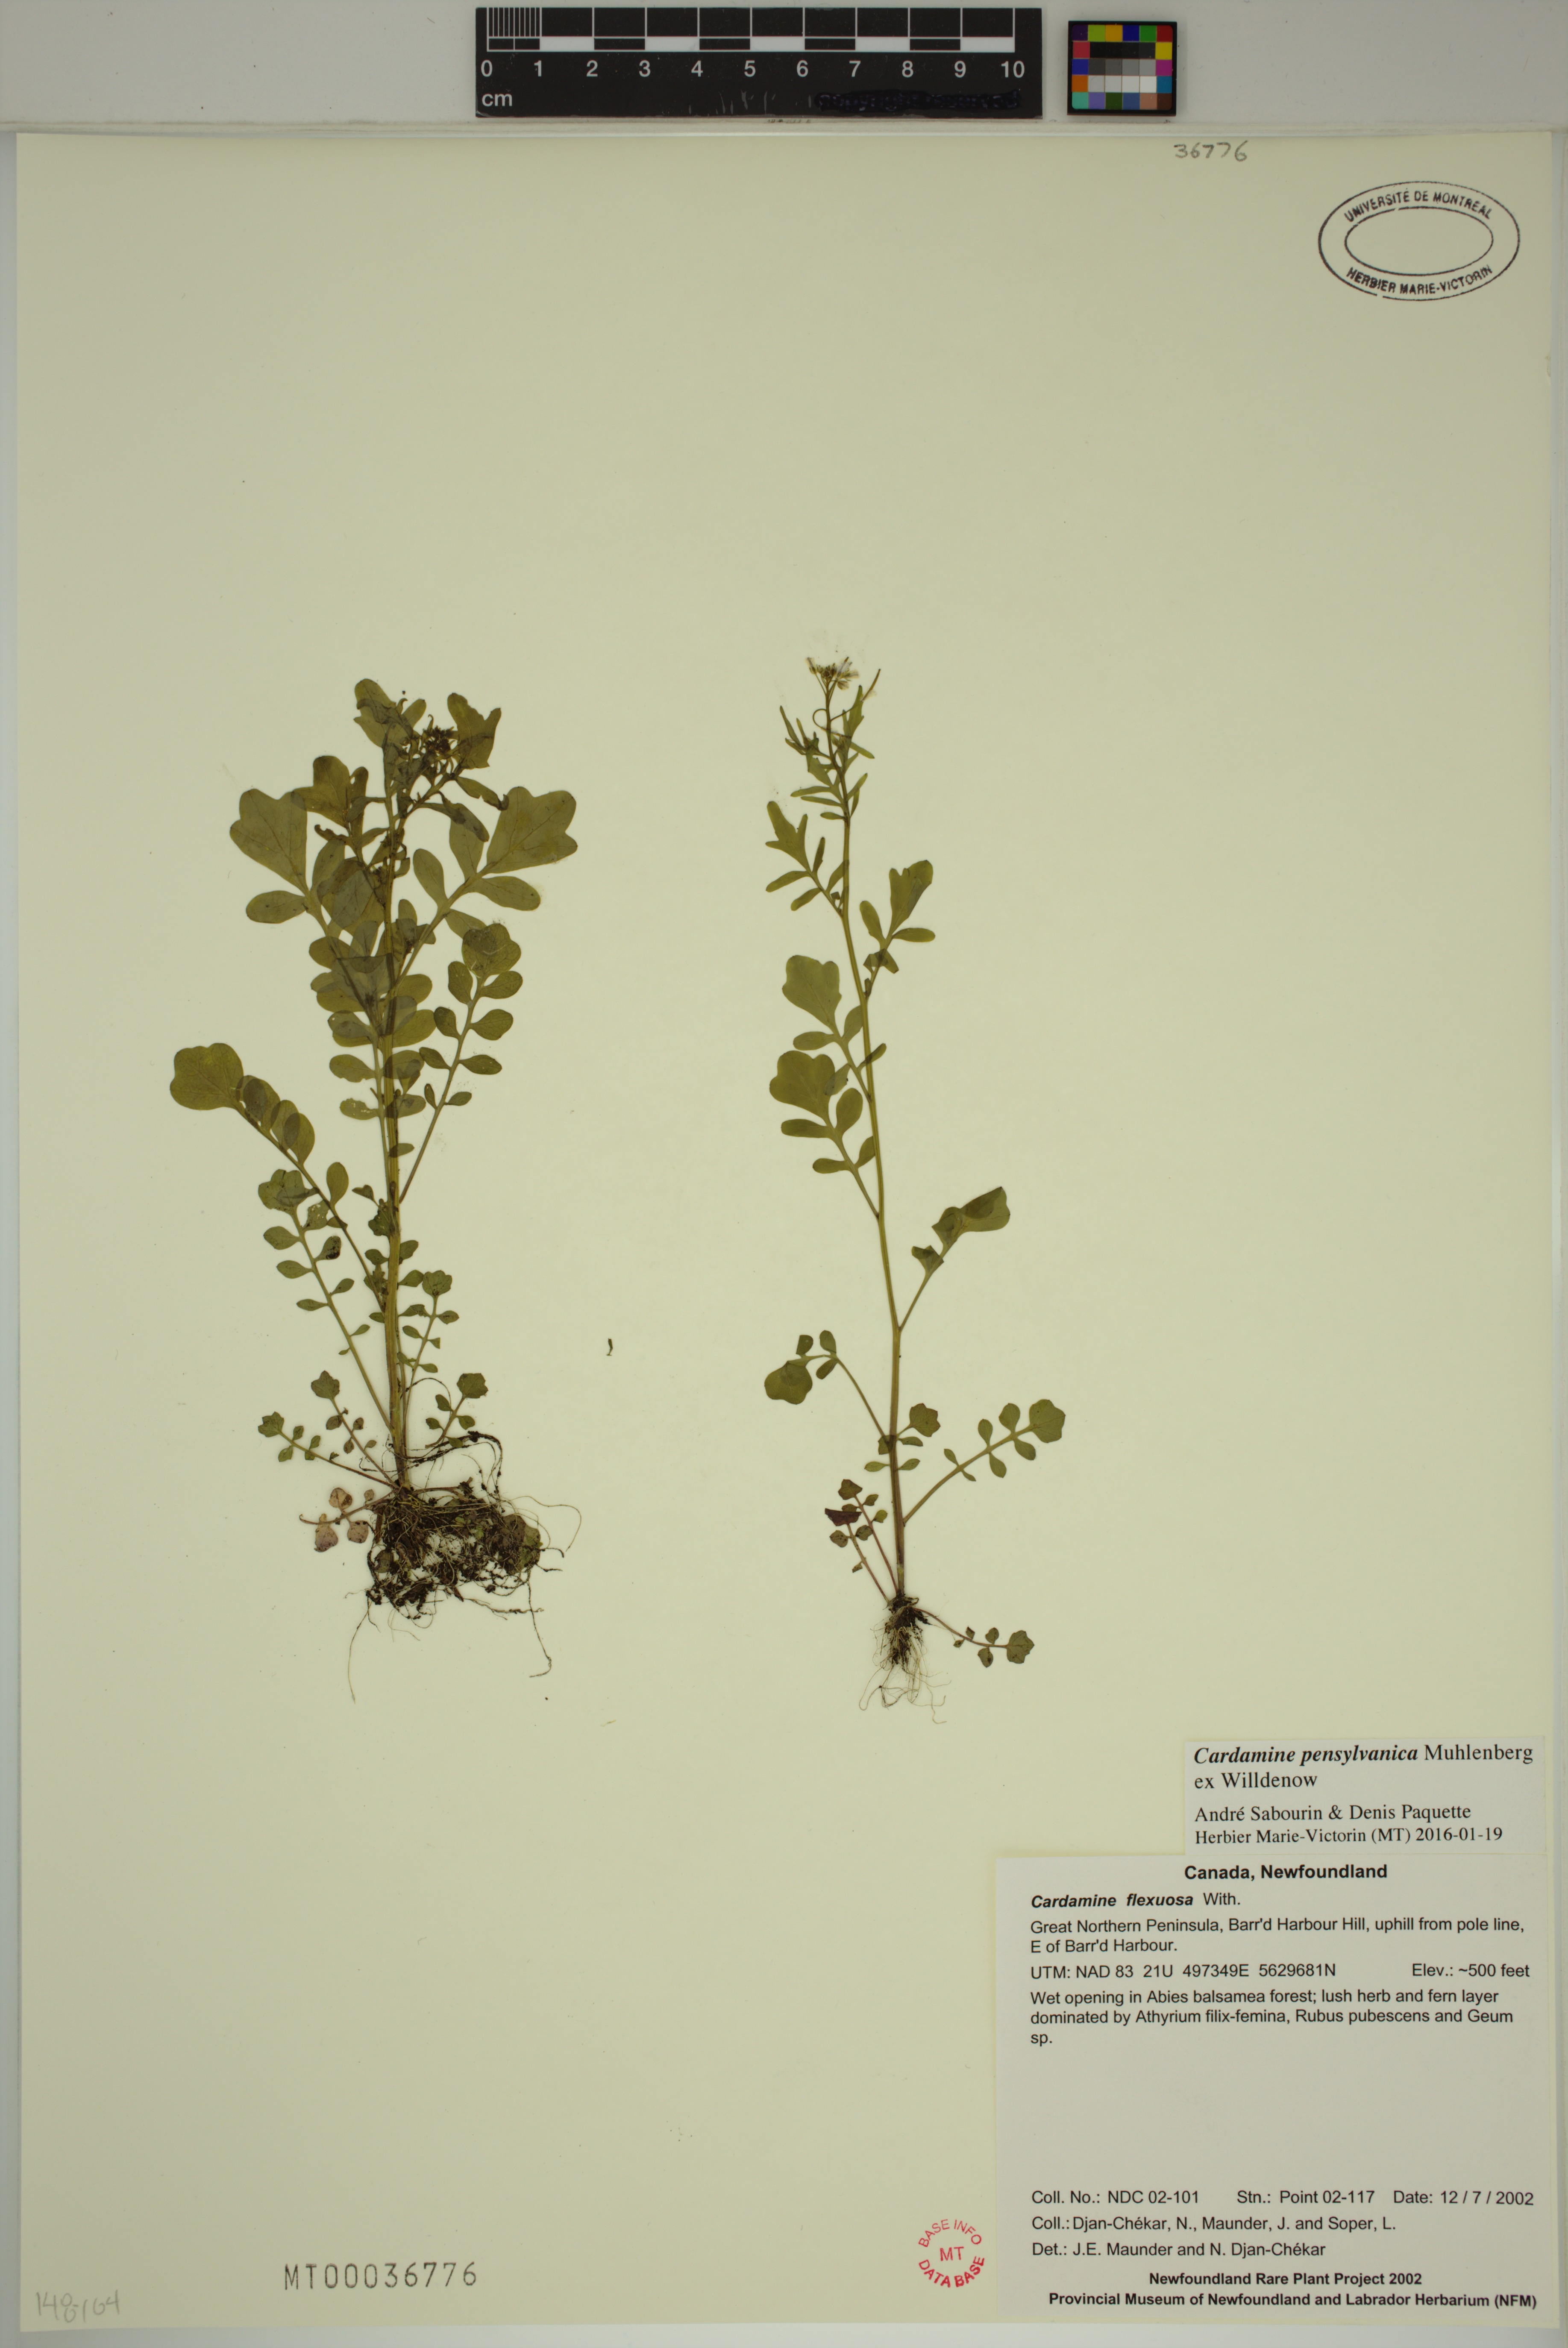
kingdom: Plantae
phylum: Tracheophyta
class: Magnoliopsida
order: Brassicales
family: Brassicaceae
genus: Cardamine
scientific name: Cardamine pensylvanica
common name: Pennsylvania bittercress
